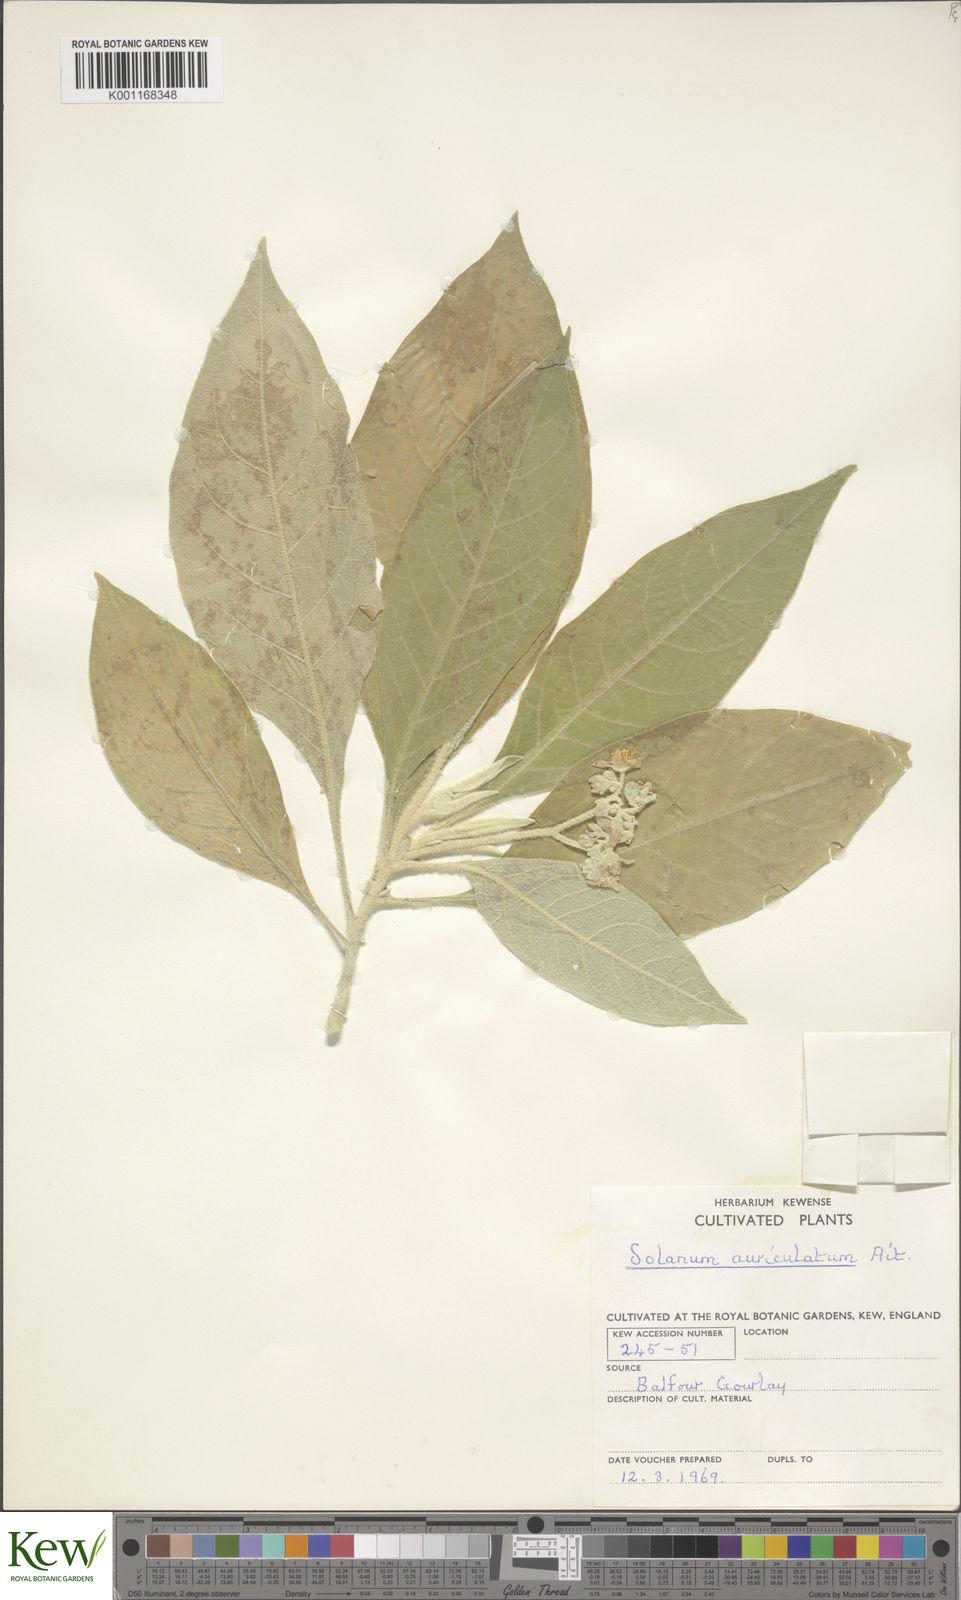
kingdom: Plantae
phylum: Tracheophyta
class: Magnoliopsida
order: Solanales
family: Solanaceae
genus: Solanum
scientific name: Solanum mauritianum
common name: Earleaf nightshade
